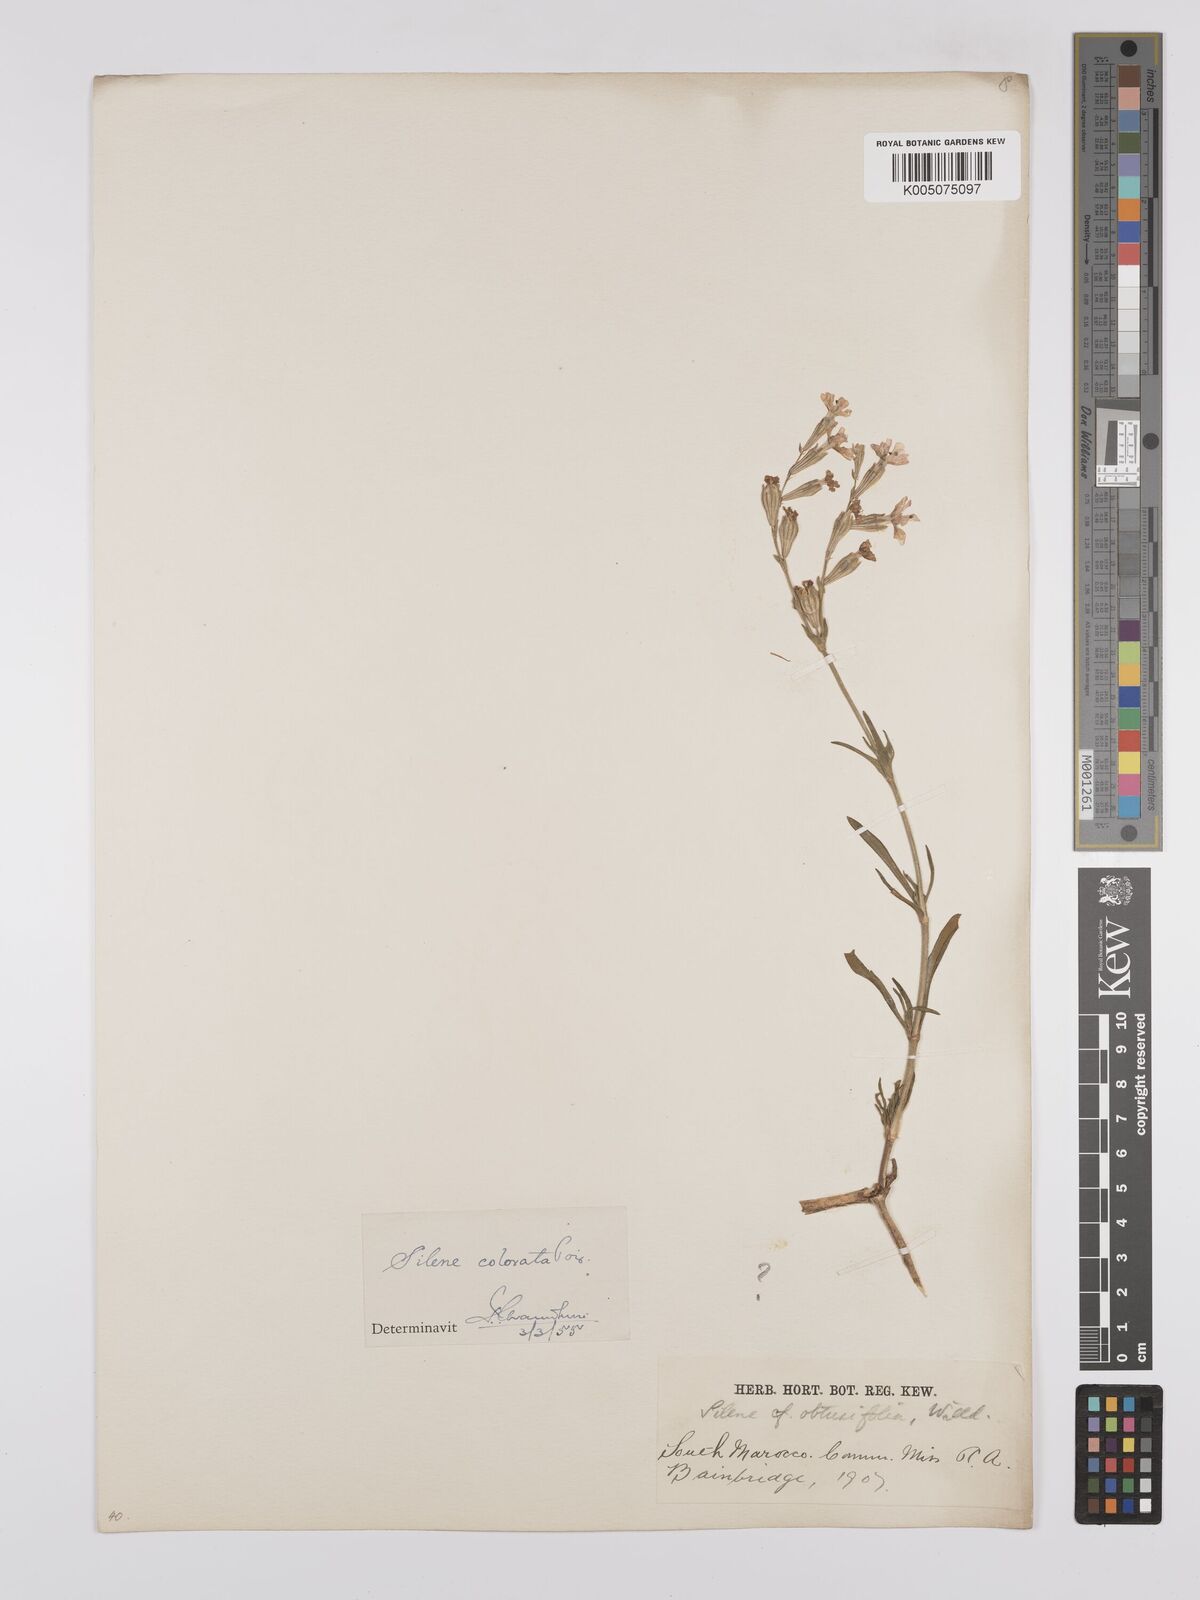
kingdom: Plantae
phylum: Tracheophyta
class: Magnoliopsida
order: Caryophyllales
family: Caryophyllaceae
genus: Silene
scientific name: Silene obtusifolia
